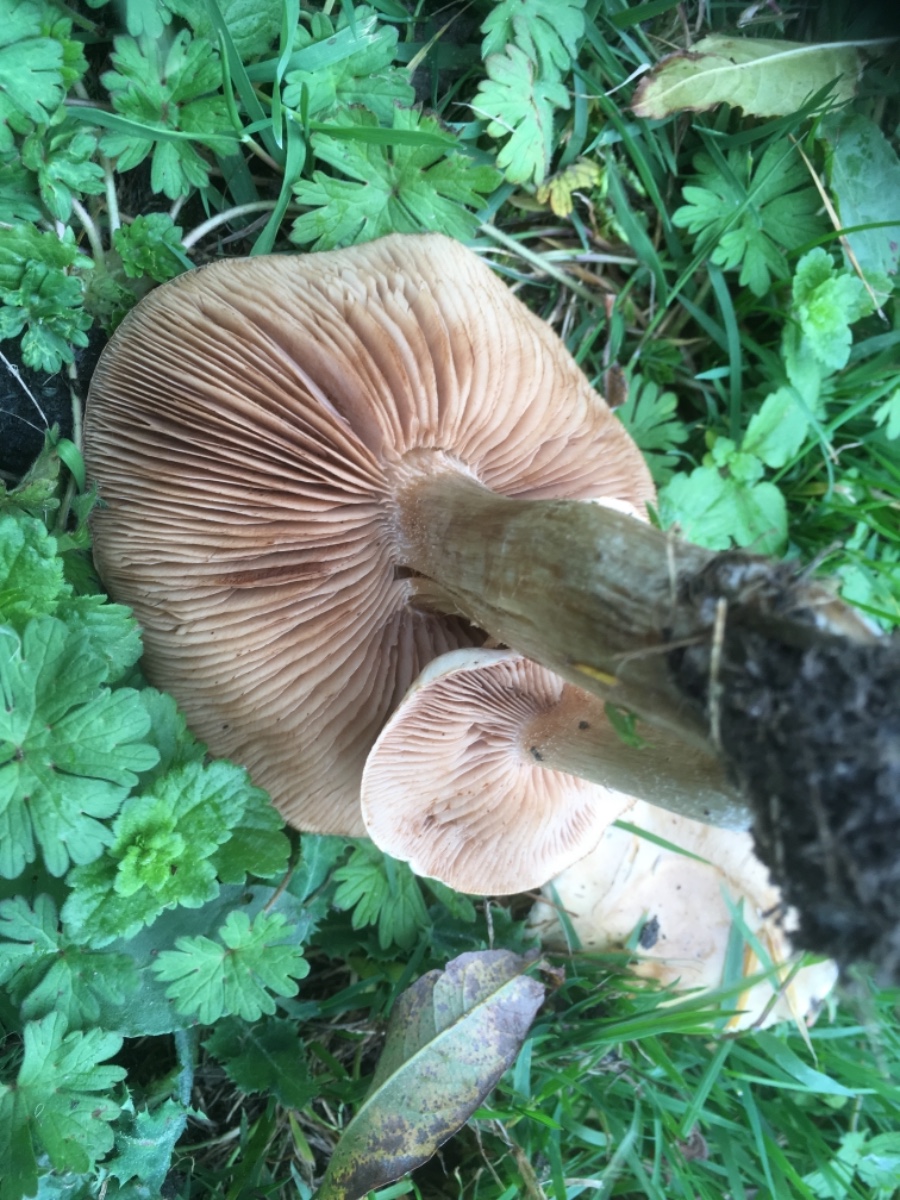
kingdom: Fungi
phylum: Basidiomycota
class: Agaricomycetes
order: Agaricales
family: Hymenogastraceae
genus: Hebeloma
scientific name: Hebeloma
